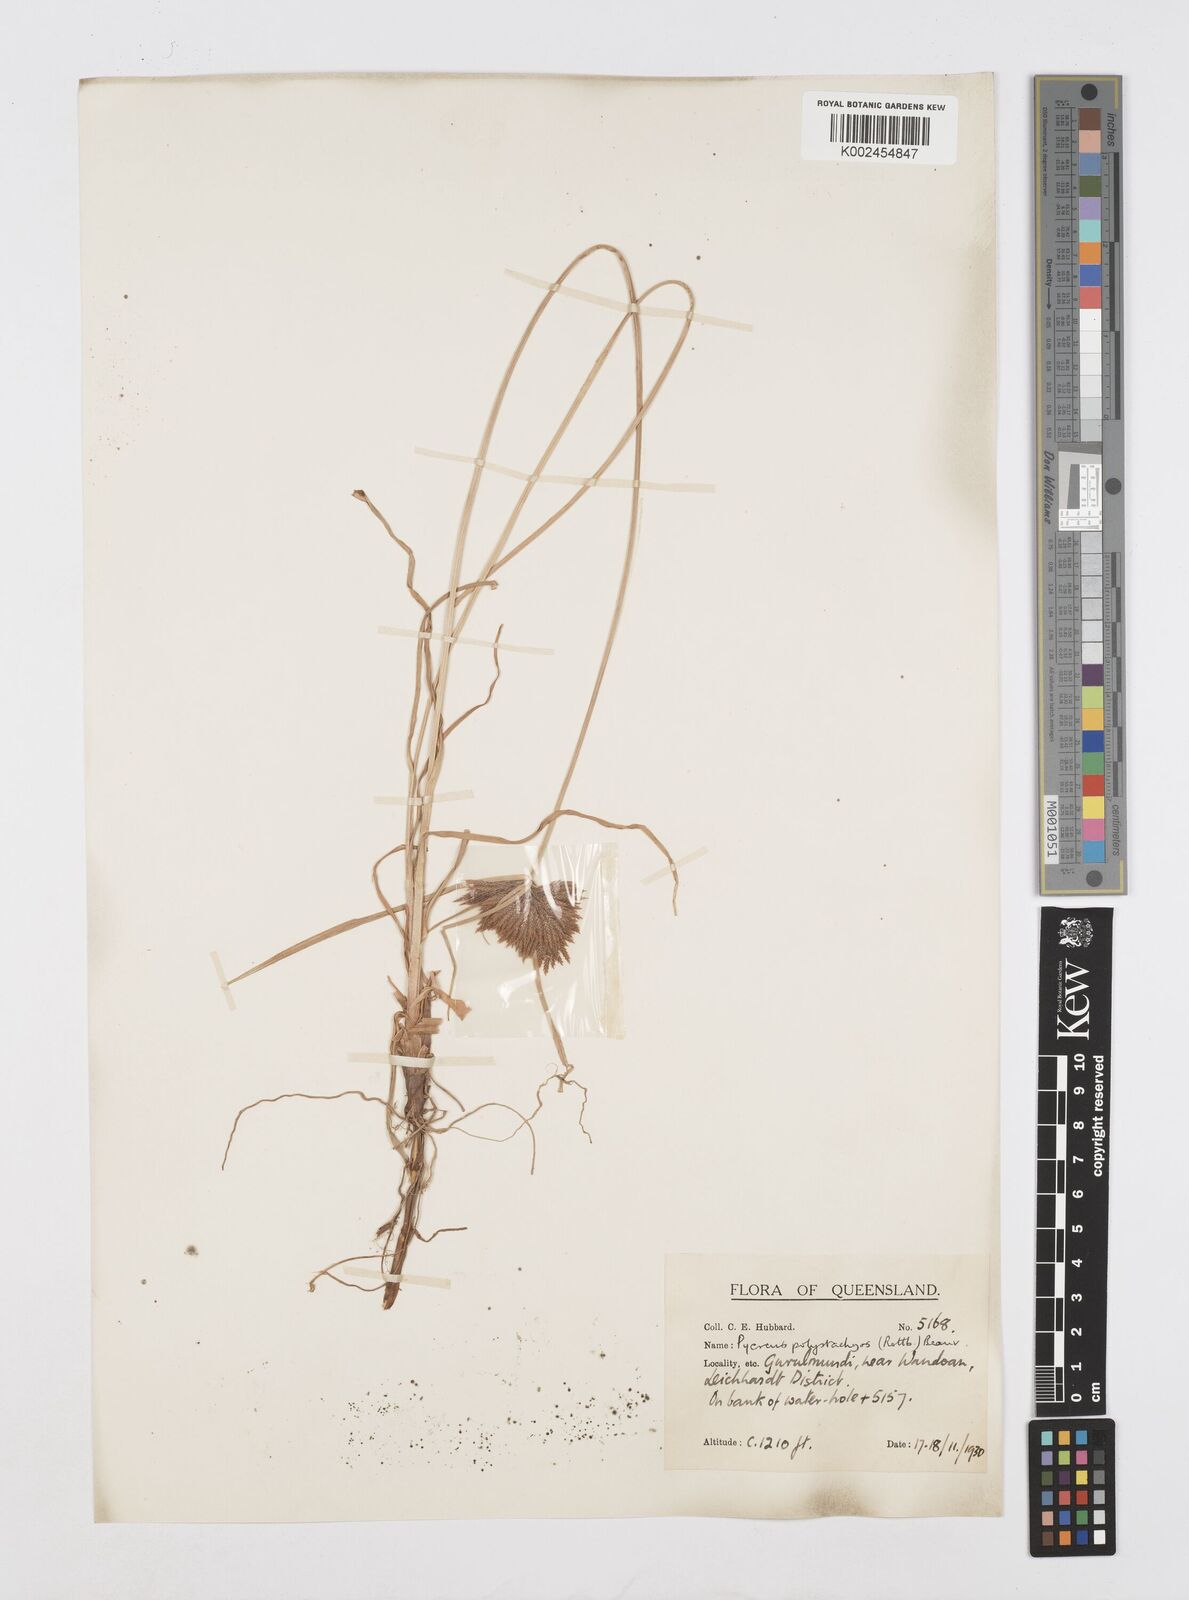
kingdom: Plantae
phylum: Tracheophyta
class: Liliopsida
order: Poales
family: Cyperaceae
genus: Cyperus
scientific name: Cyperus polystachyos
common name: Bunchy flat sedge
